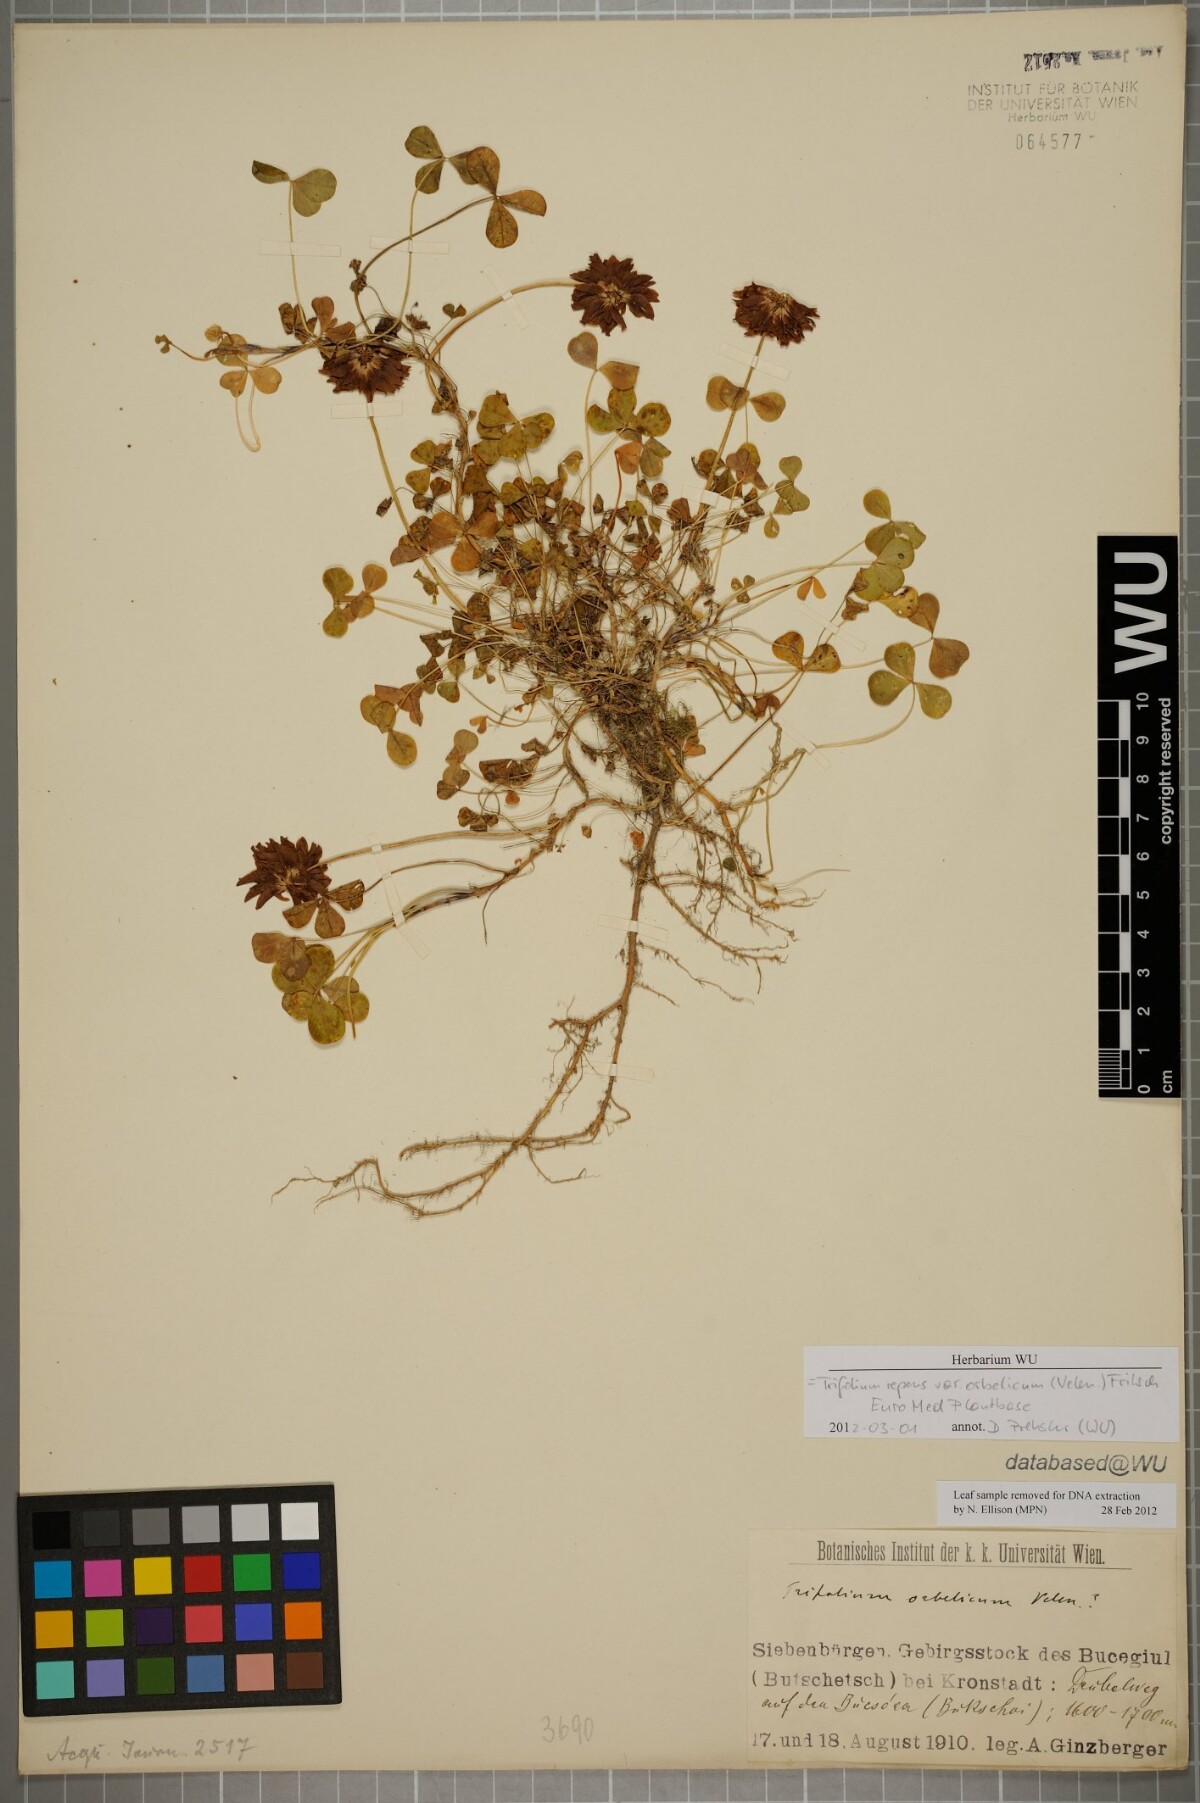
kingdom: Plantae
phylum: Tracheophyta
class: Magnoliopsida
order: Fabales
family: Fabaceae
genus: Trifolium
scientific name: Trifolium orbelicum
